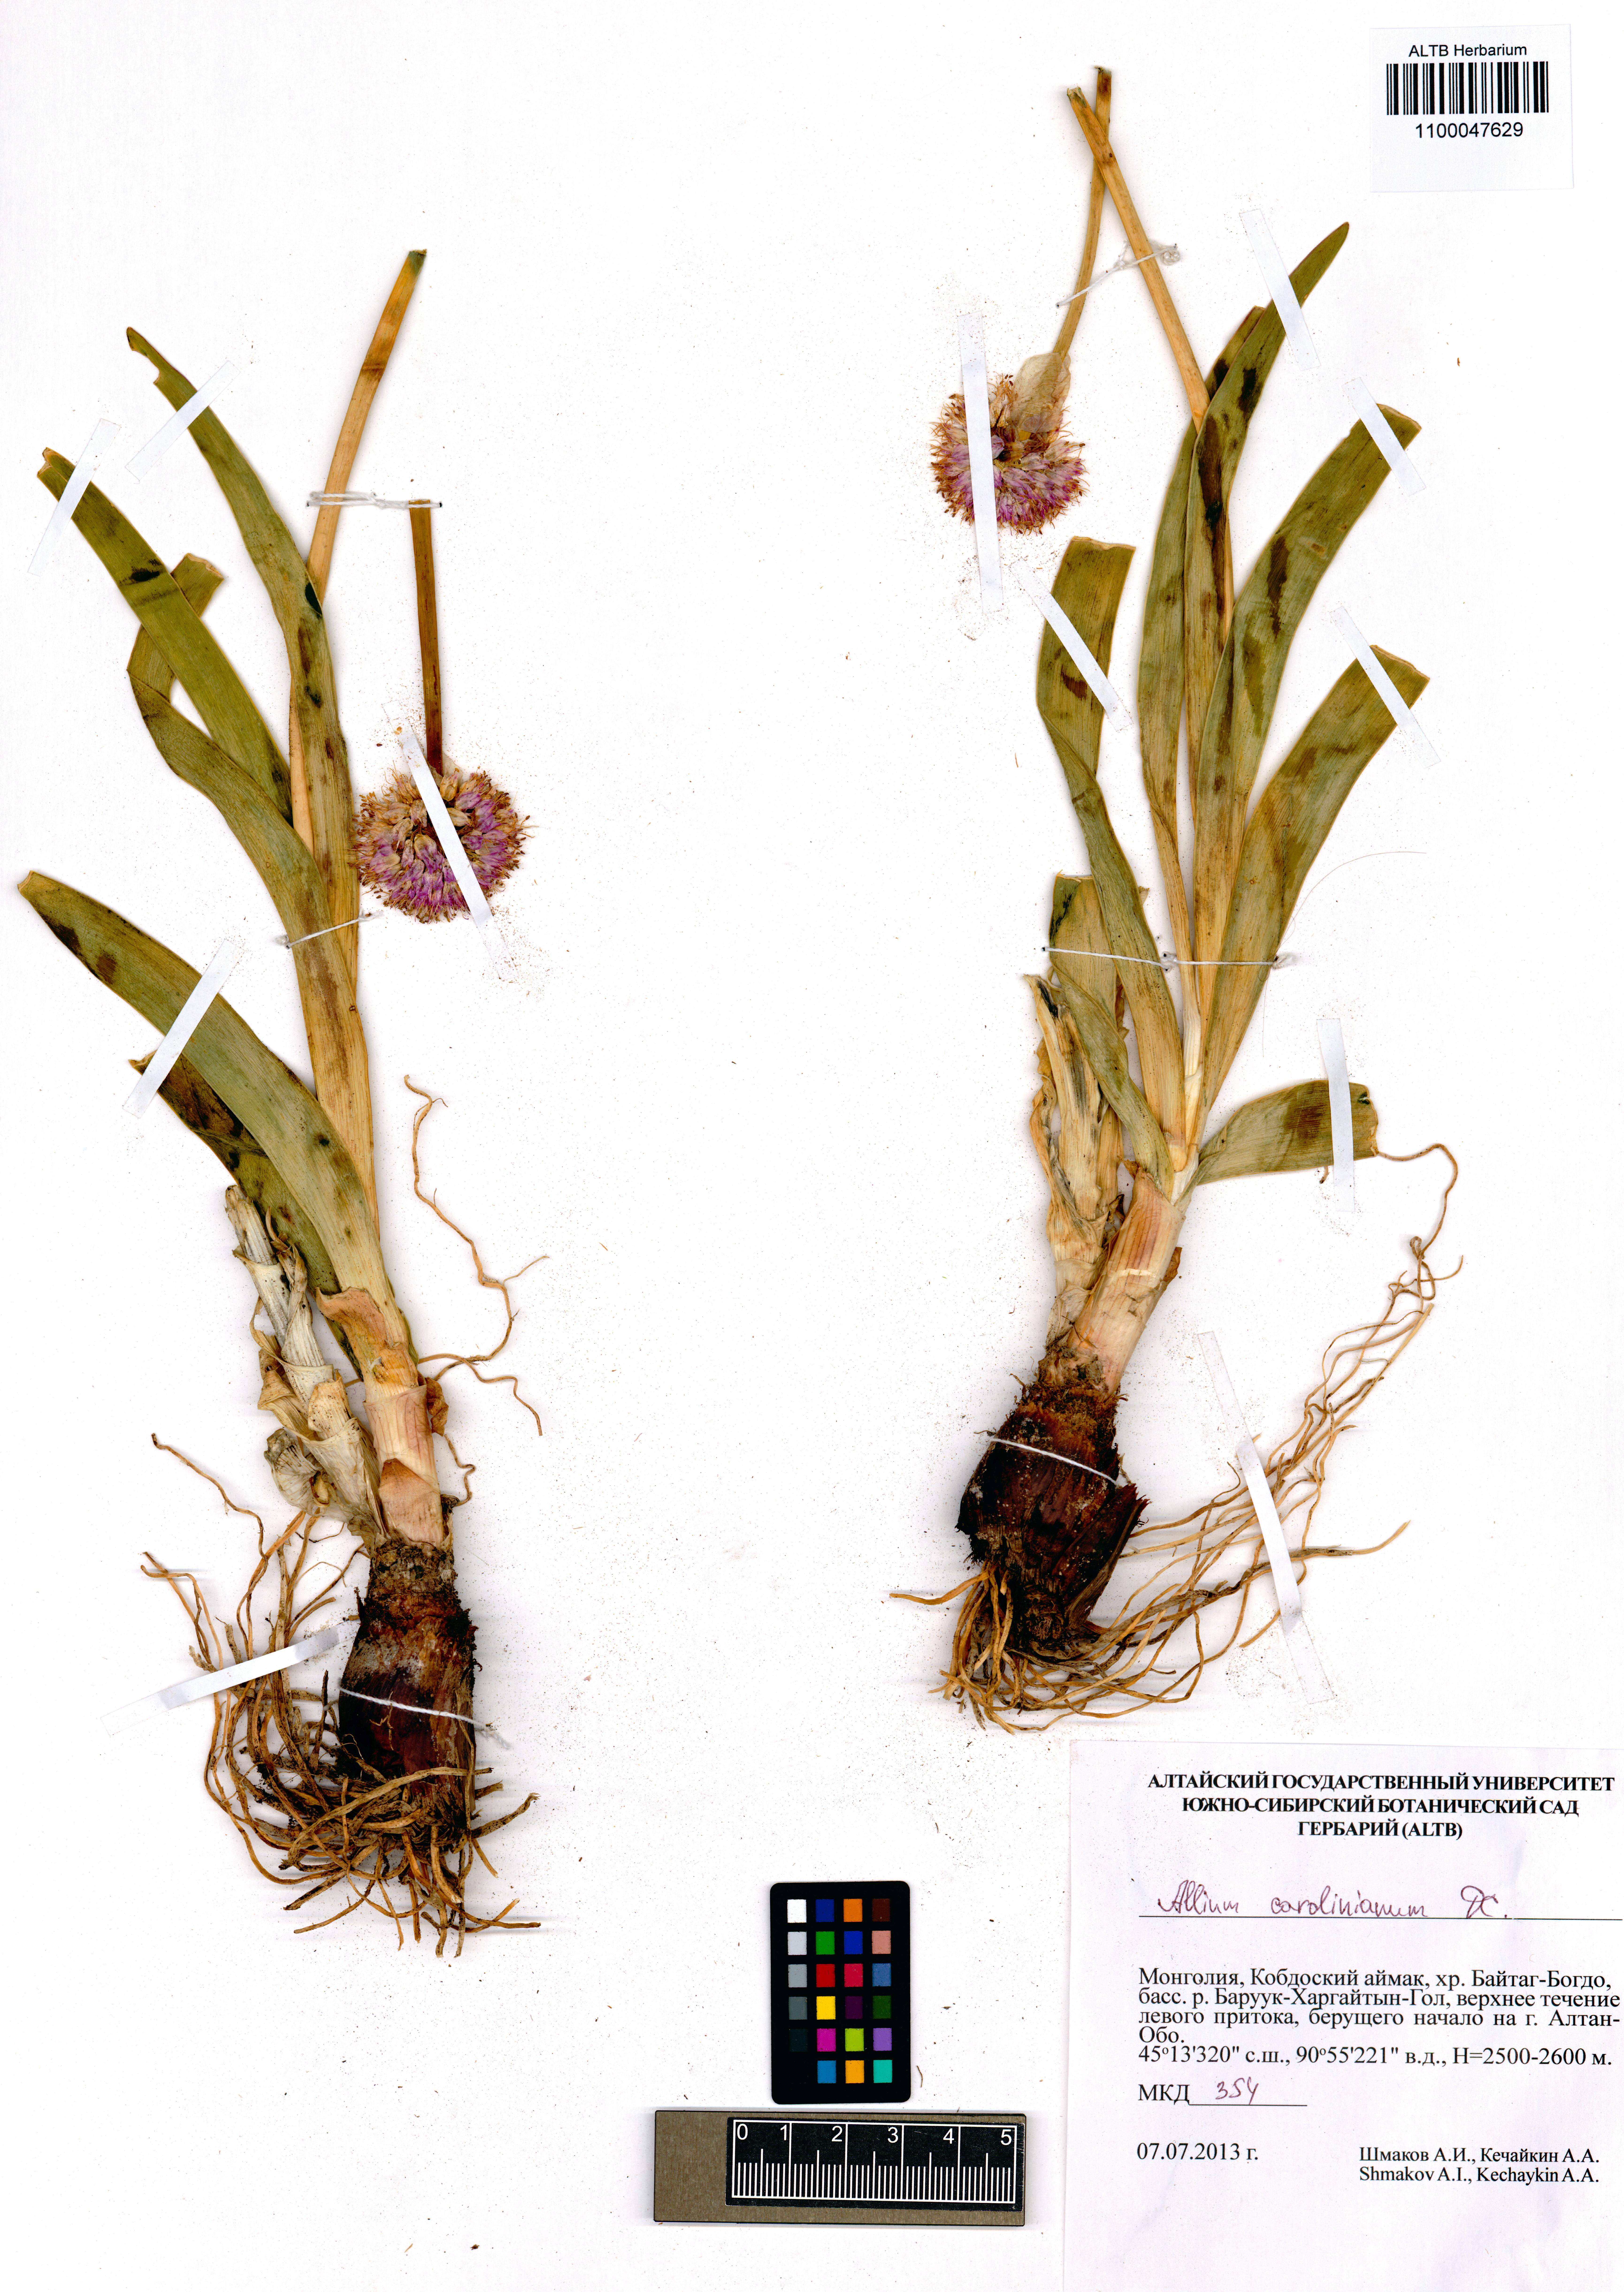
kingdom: Plantae
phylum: Tracheophyta
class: Liliopsida
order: Asparagales
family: Amaryllidaceae
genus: Allium
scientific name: Allium carolinianum
